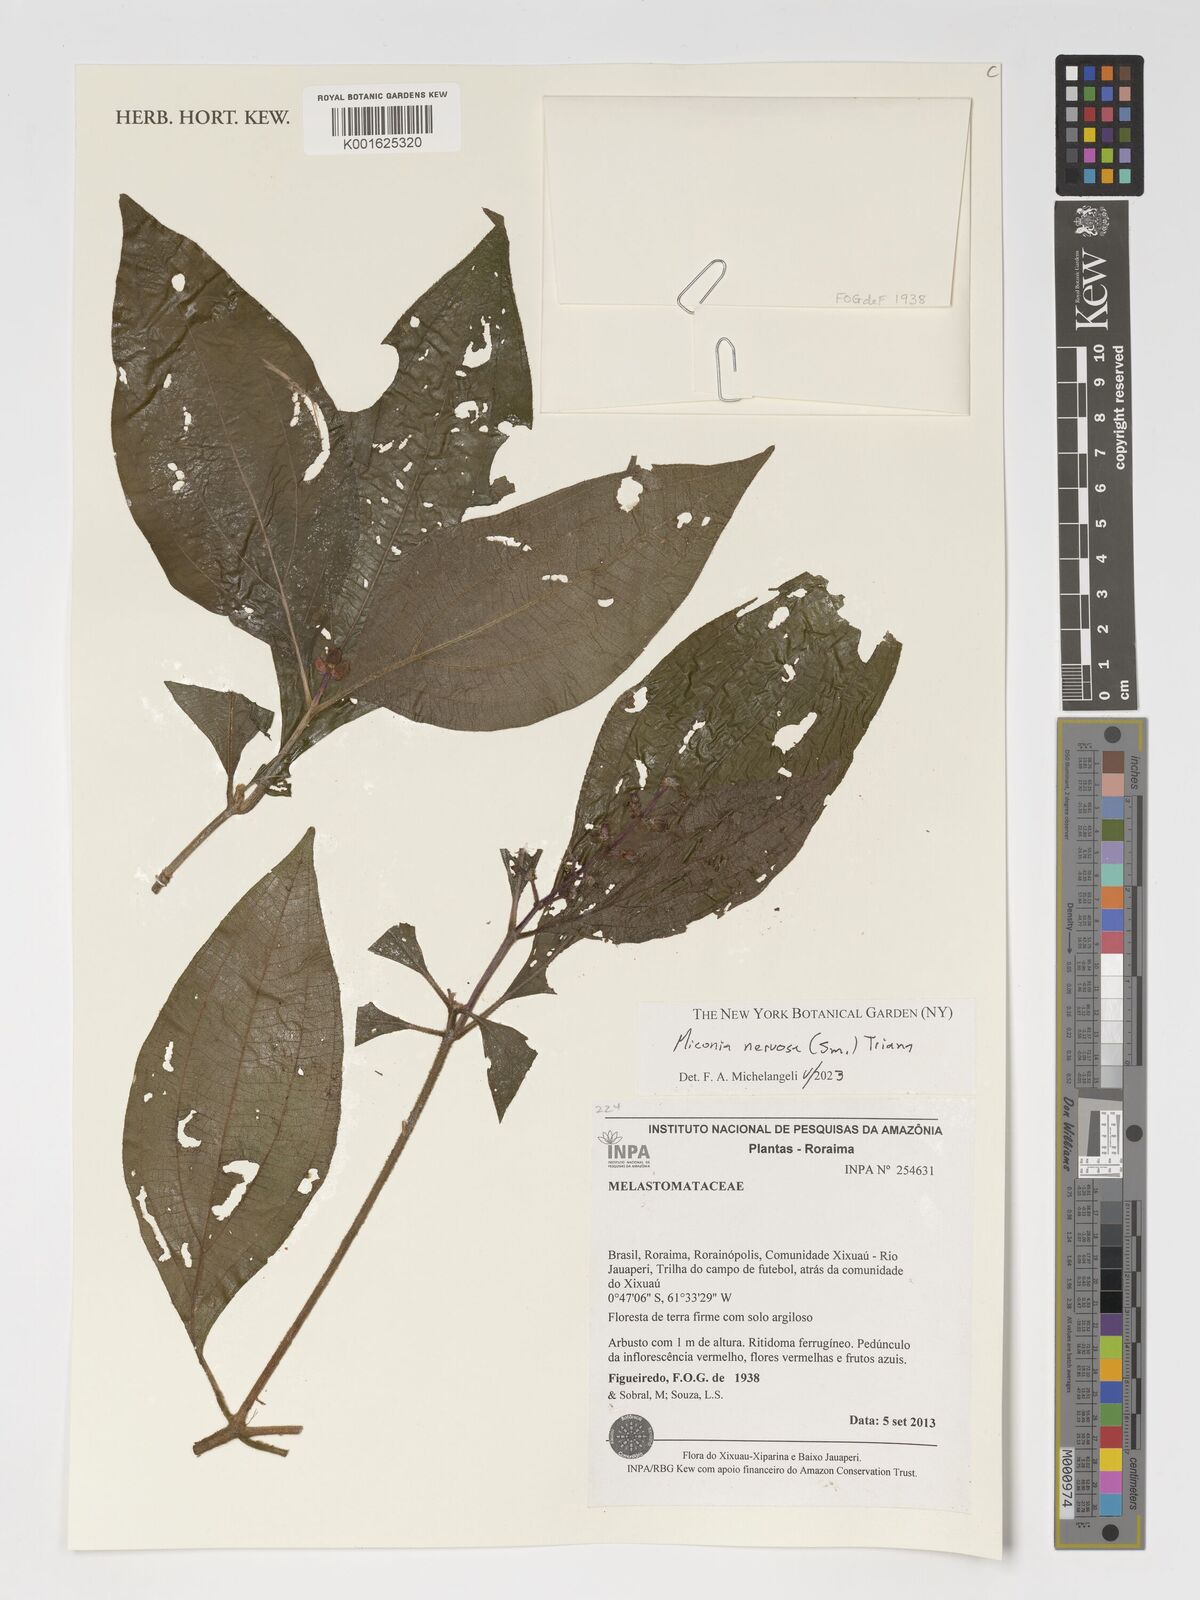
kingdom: Plantae
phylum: Tracheophyta
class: Magnoliopsida
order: Myrtales
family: Melastomataceae
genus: Miconia
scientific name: Miconia nervosa
